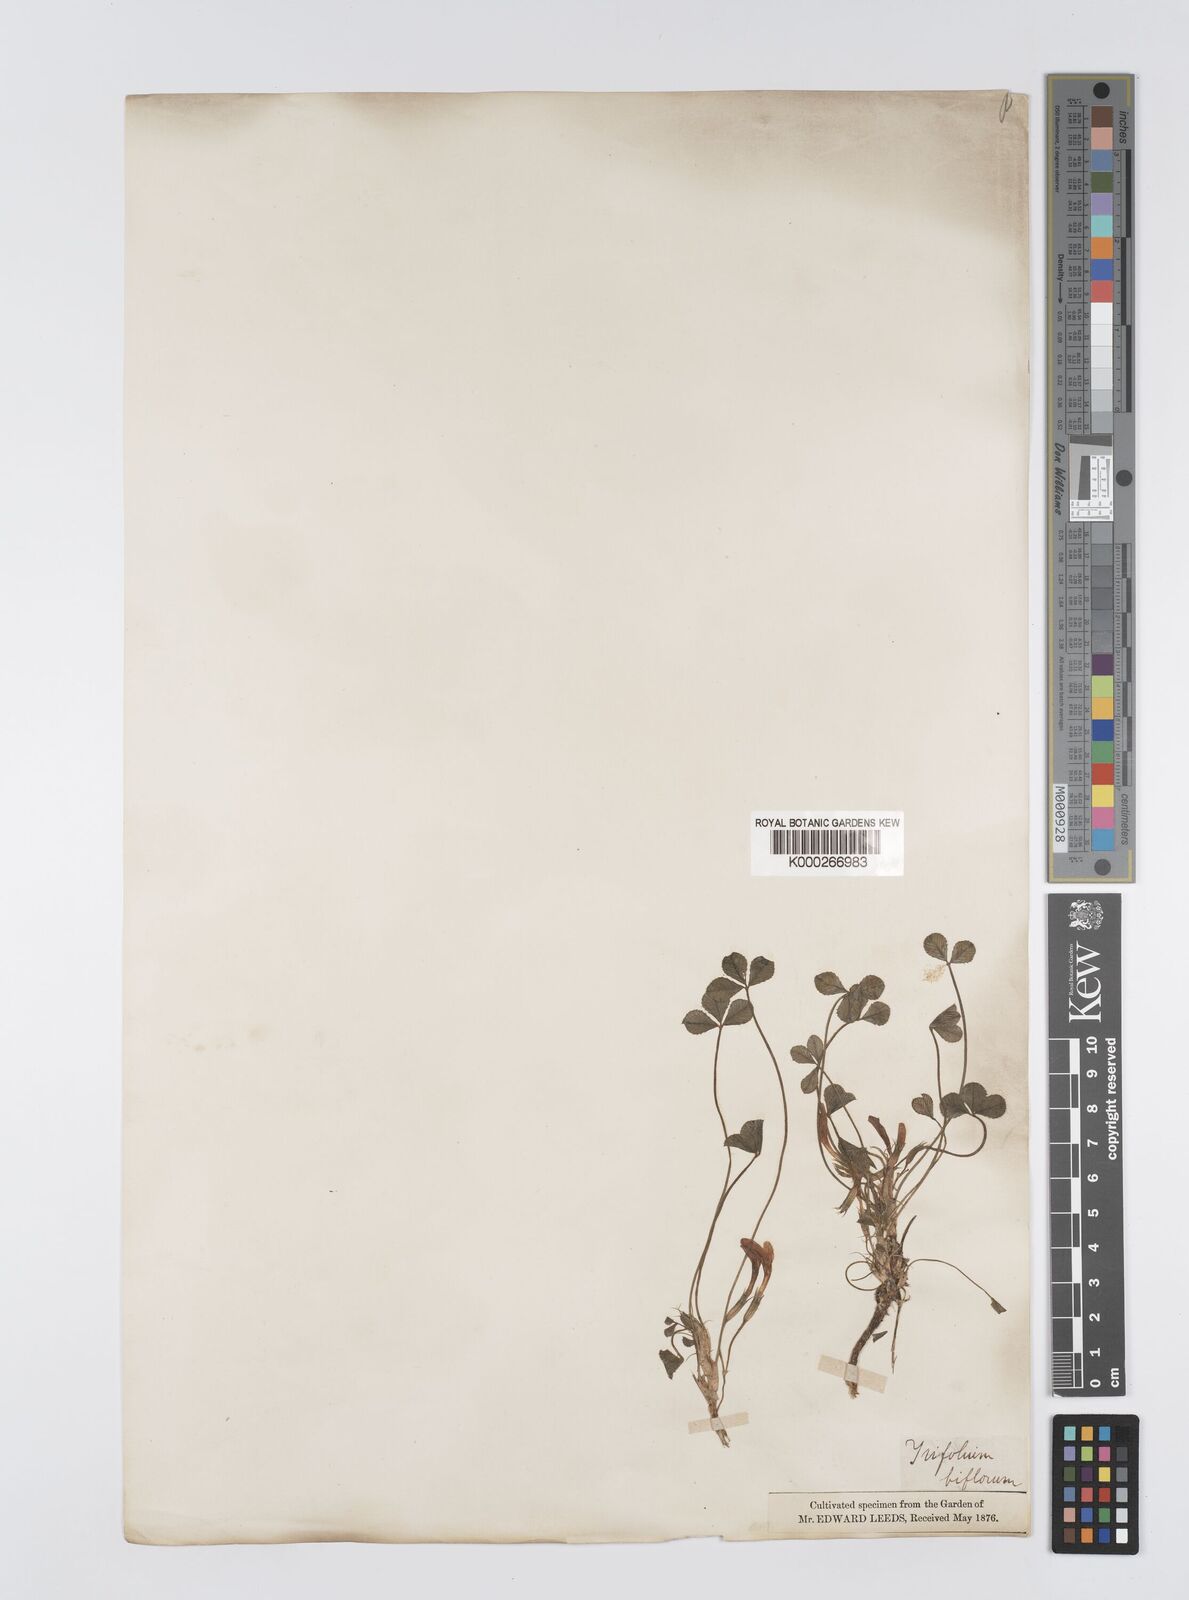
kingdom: Plantae
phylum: Tracheophyta
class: Magnoliopsida
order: Fabales
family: Fabaceae
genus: Trifolium
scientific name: Trifolium uniflorum
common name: One-flower clover
